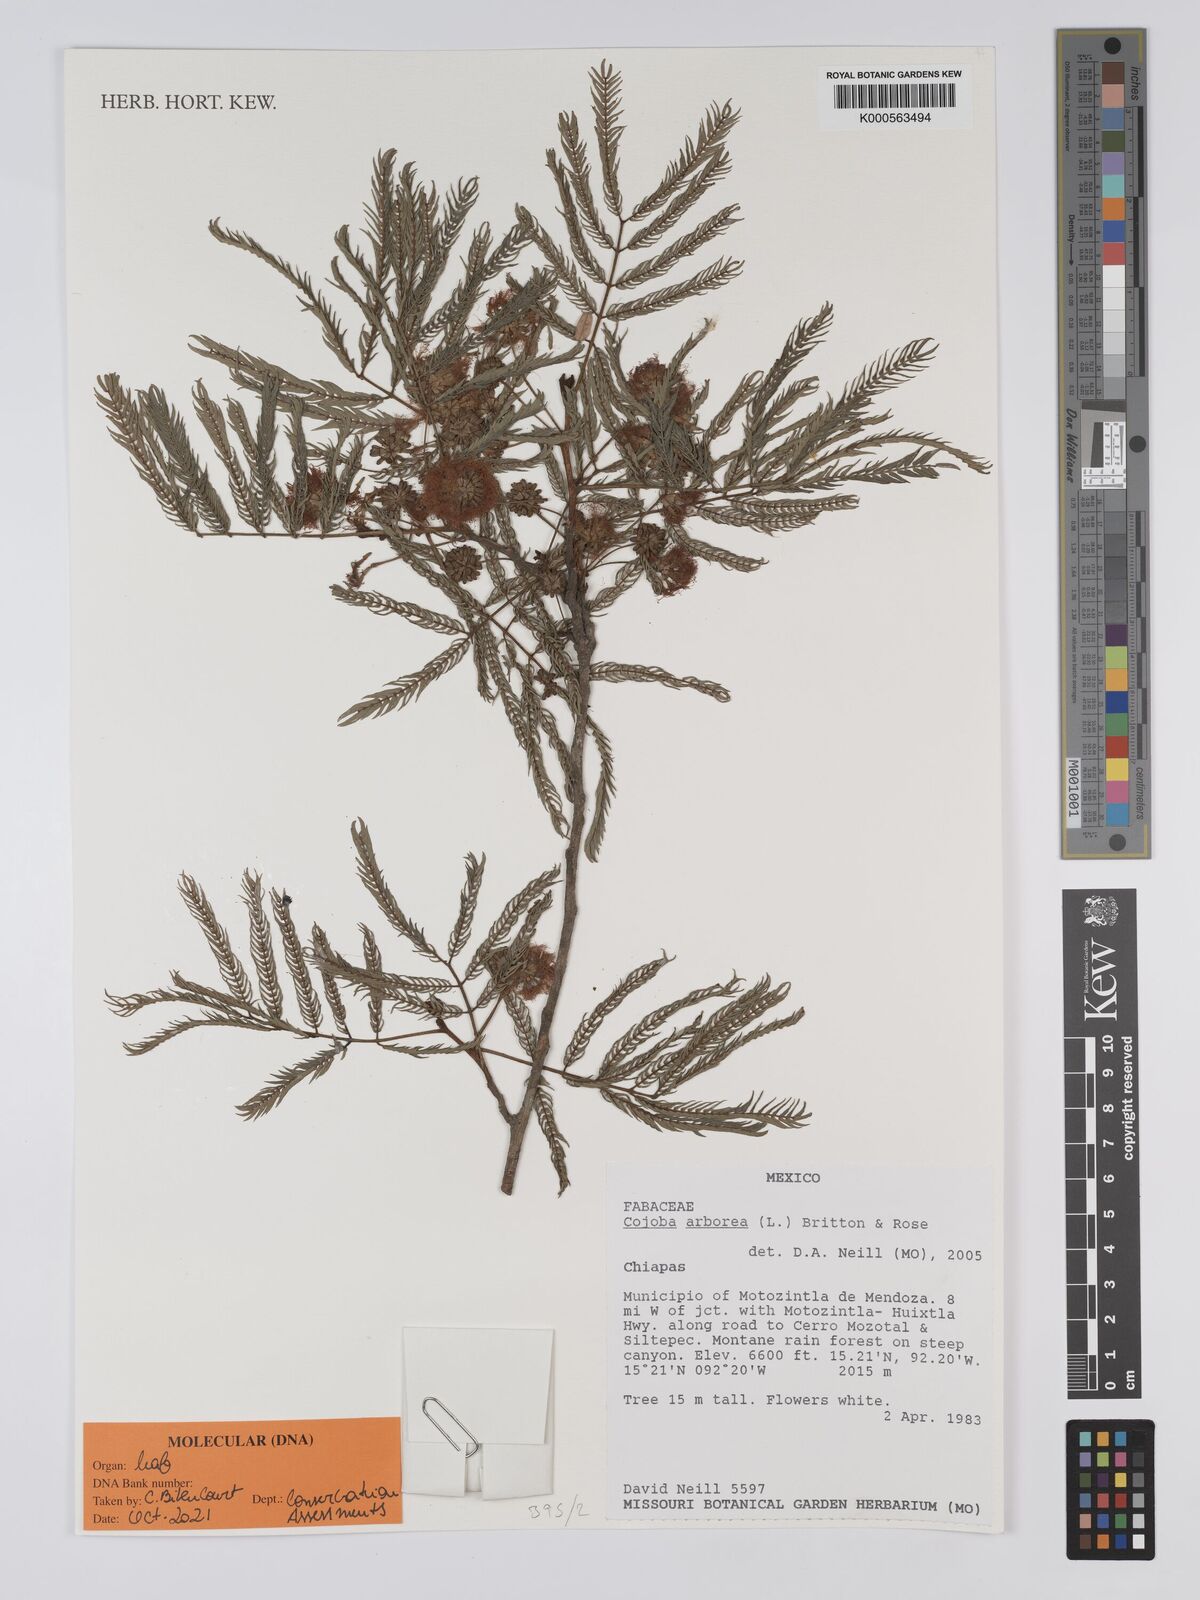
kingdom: Plantae
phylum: Tracheophyta
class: Magnoliopsida
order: Fabales
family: Fabaceae
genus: Cojoba
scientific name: Cojoba arborea
